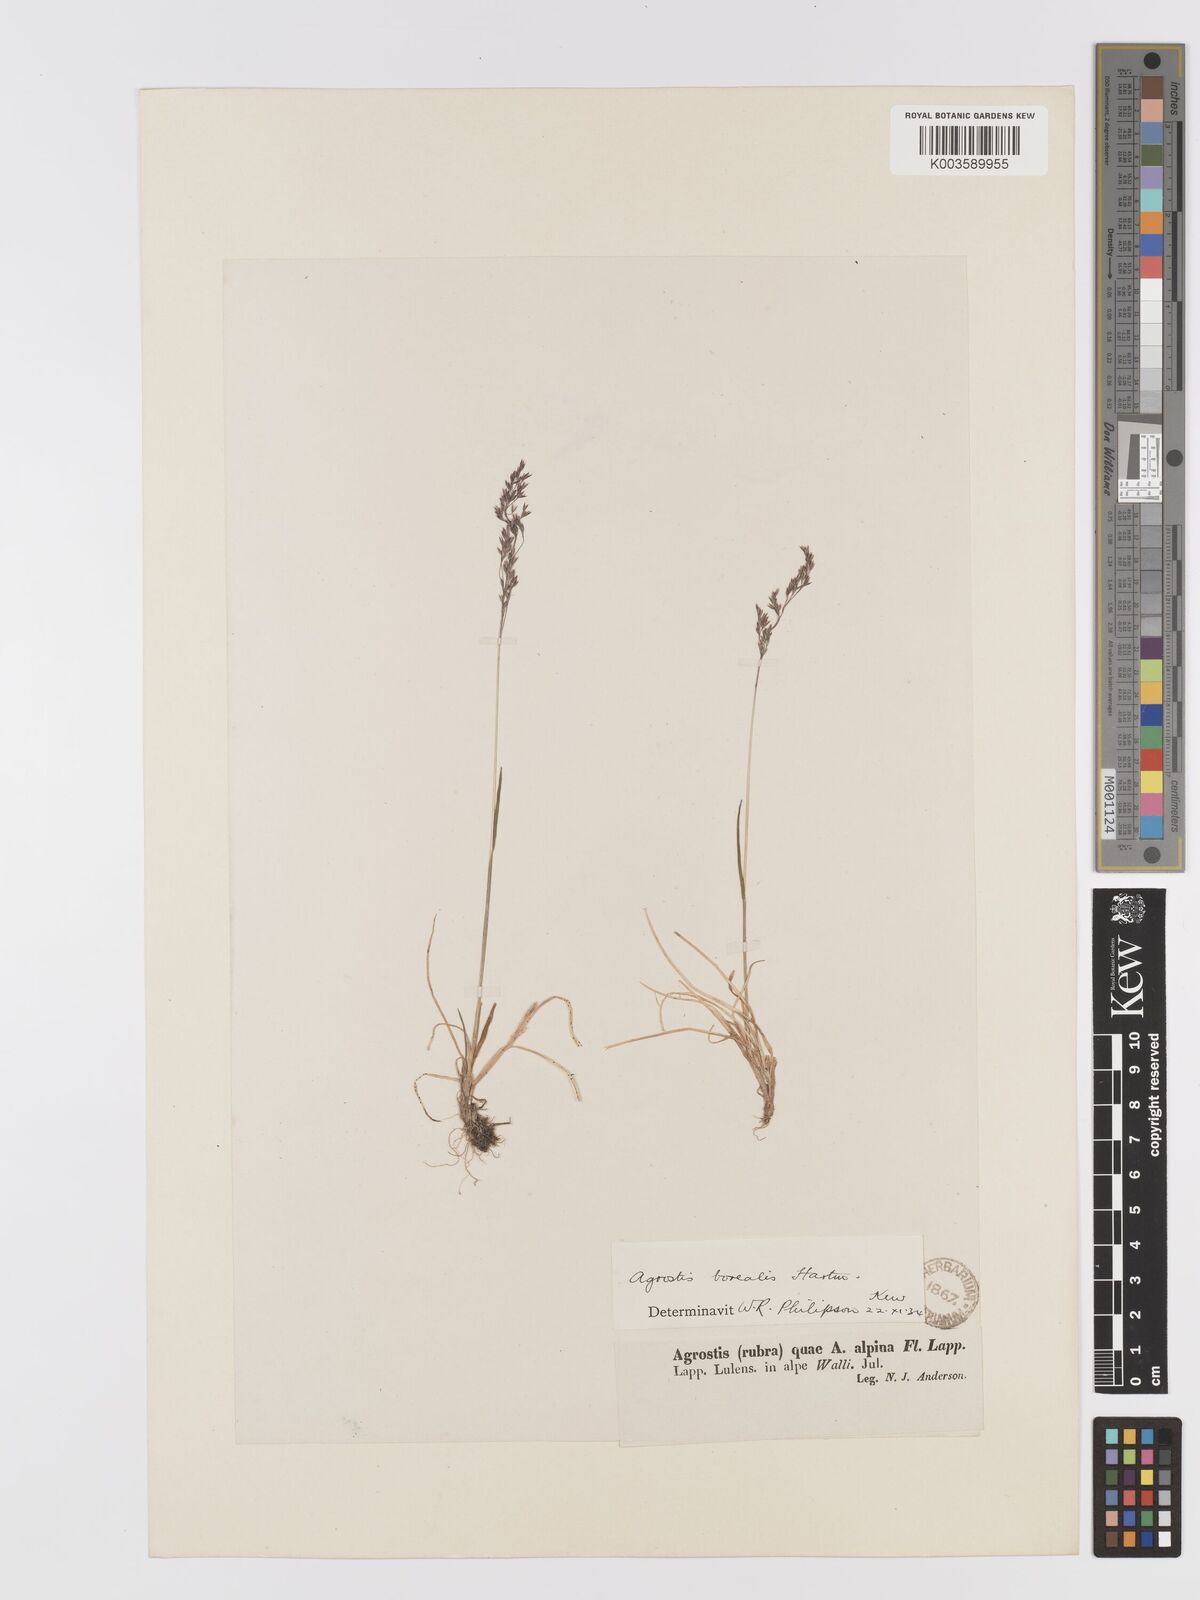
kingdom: Plantae
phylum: Tracheophyta
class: Liliopsida
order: Poales
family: Poaceae
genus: Agrostis
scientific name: Agrostis mertensii
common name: Northern bent
